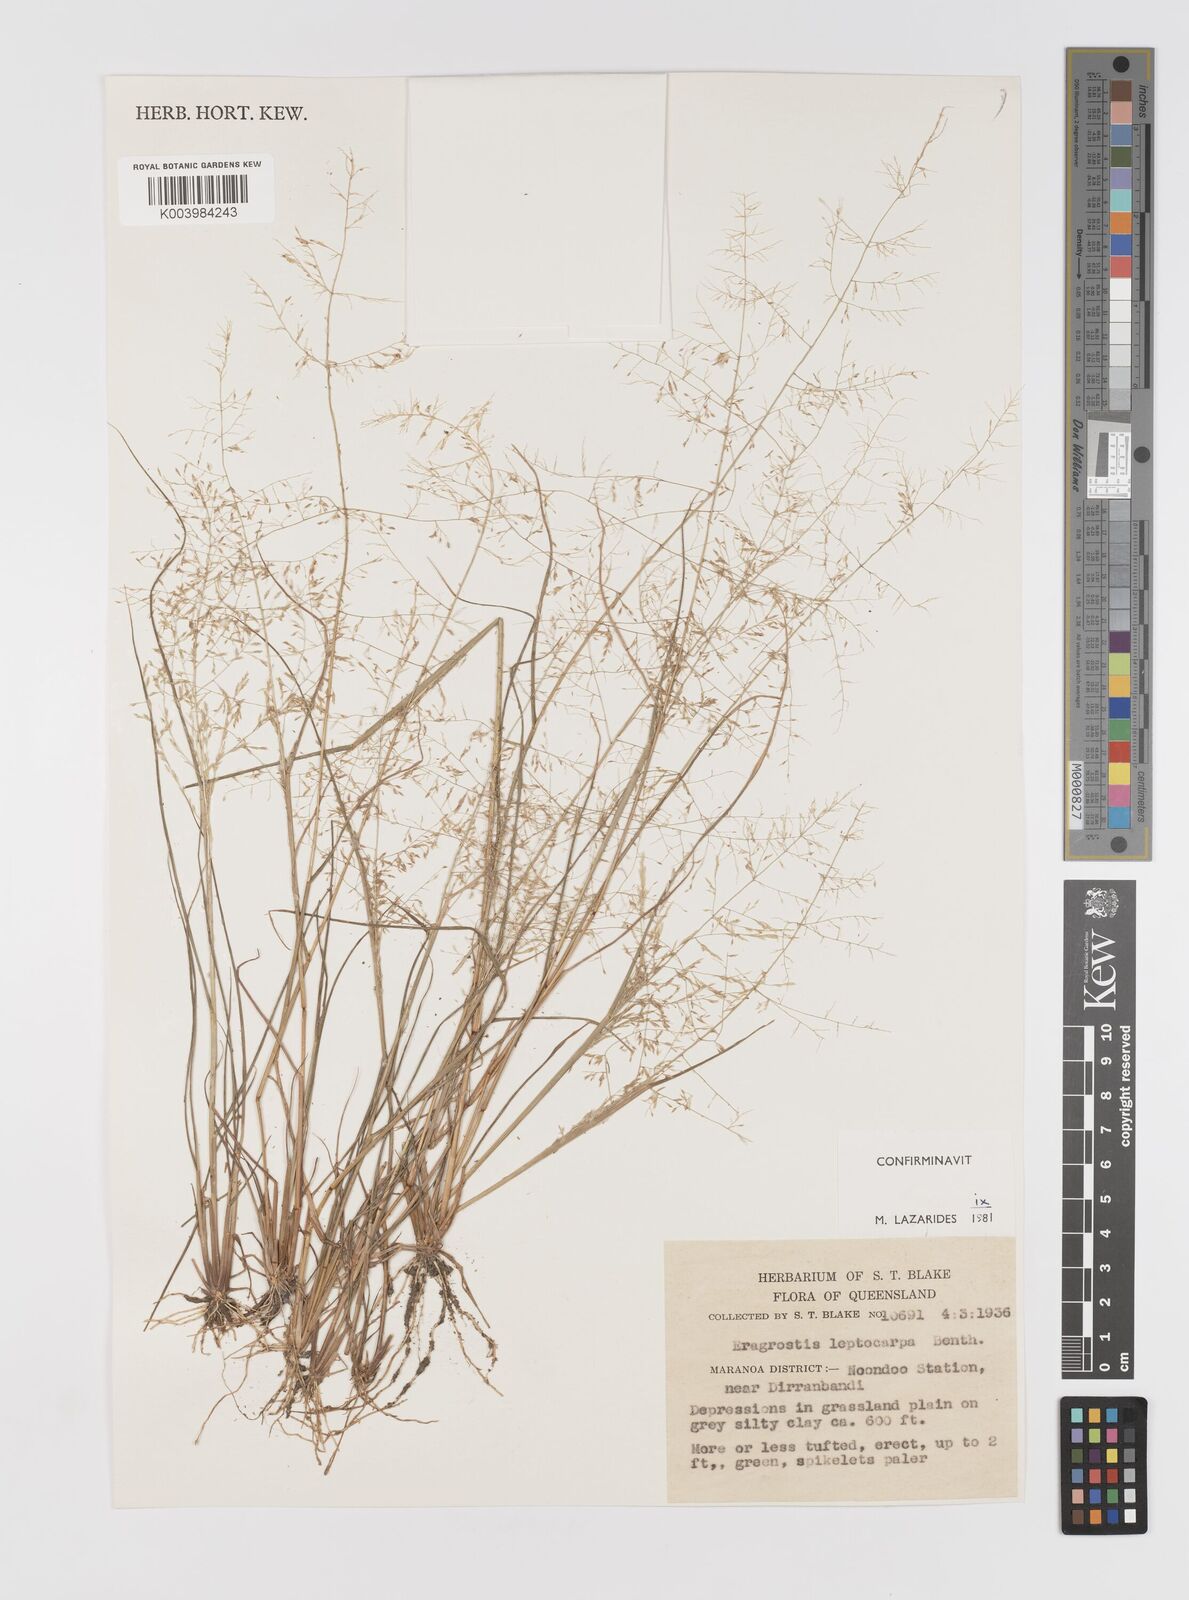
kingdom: Plantae
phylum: Tracheophyta
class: Liliopsida
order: Poales
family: Poaceae
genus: Eragrostis
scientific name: Eragrostis leptocarpa
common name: Drooping love grass
